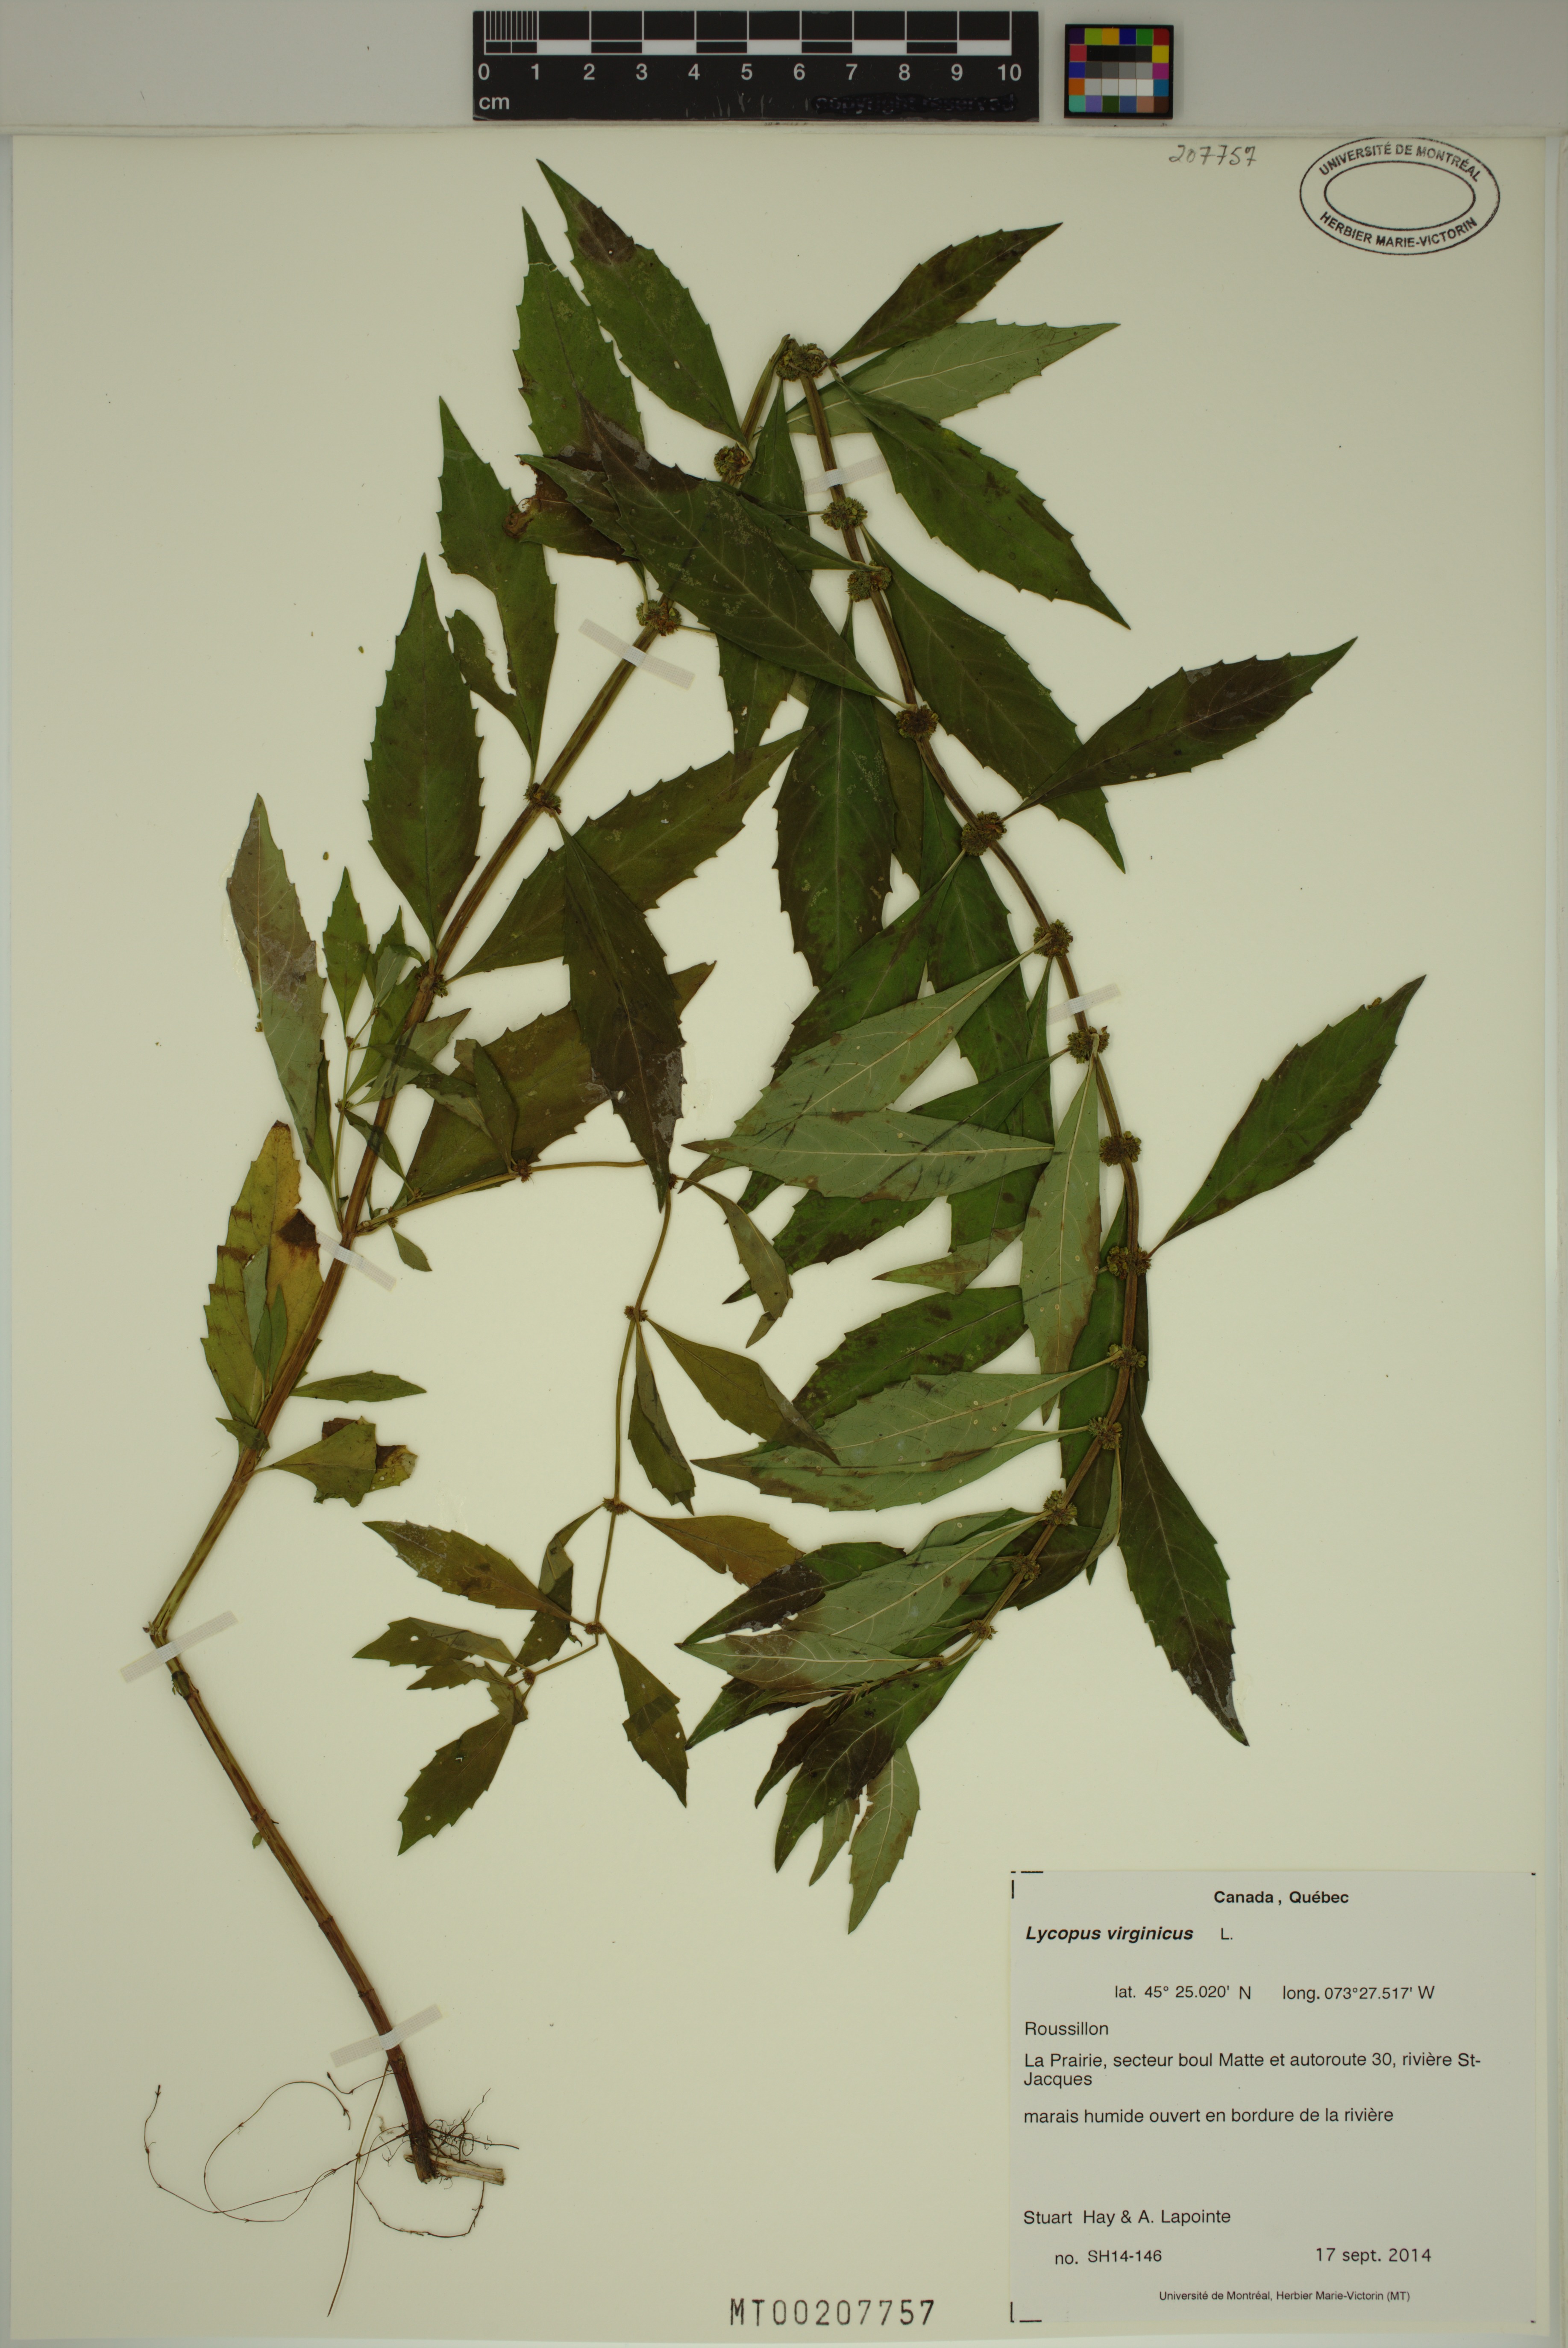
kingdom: Plantae
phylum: Tracheophyta
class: Magnoliopsida
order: Lamiales
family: Lamiaceae
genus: Lycopus
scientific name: Lycopus virginicus
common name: Bugleweed
